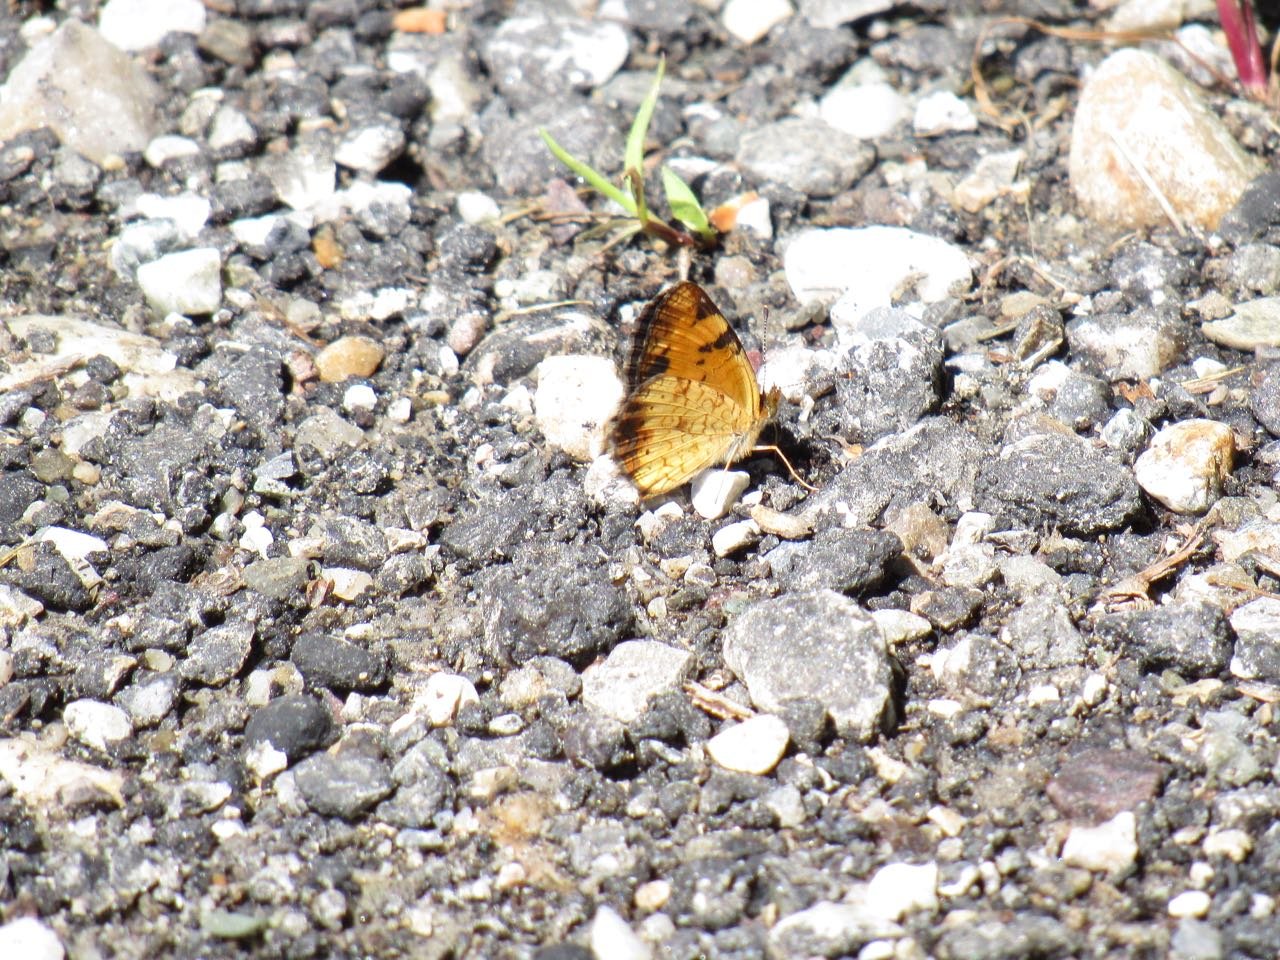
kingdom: Animalia
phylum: Arthropoda
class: Insecta
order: Lepidoptera
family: Nymphalidae
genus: Phyciodes
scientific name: Phyciodes tharos
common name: Pearl Crescent
